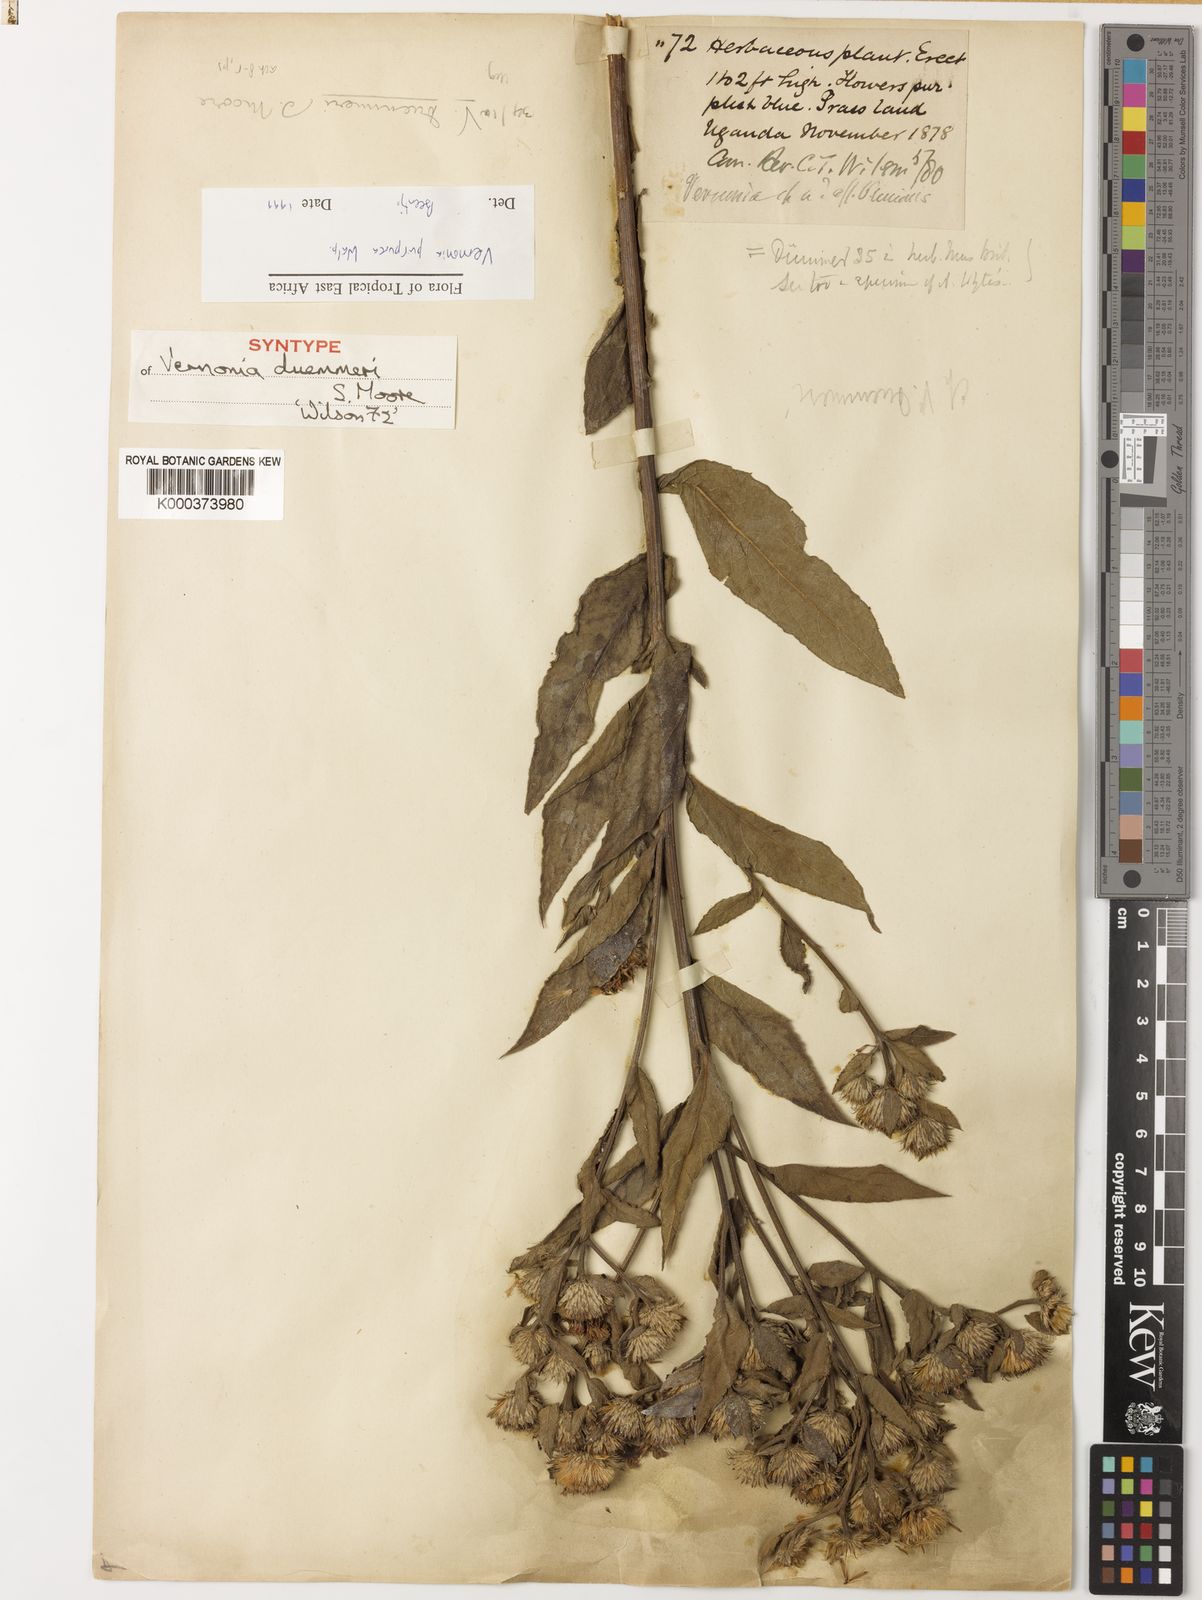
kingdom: Plantae
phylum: Tracheophyta
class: Magnoliopsida
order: Asterales
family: Asteraceae
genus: Nothovernonia
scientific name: Nothovernonia purpurea
